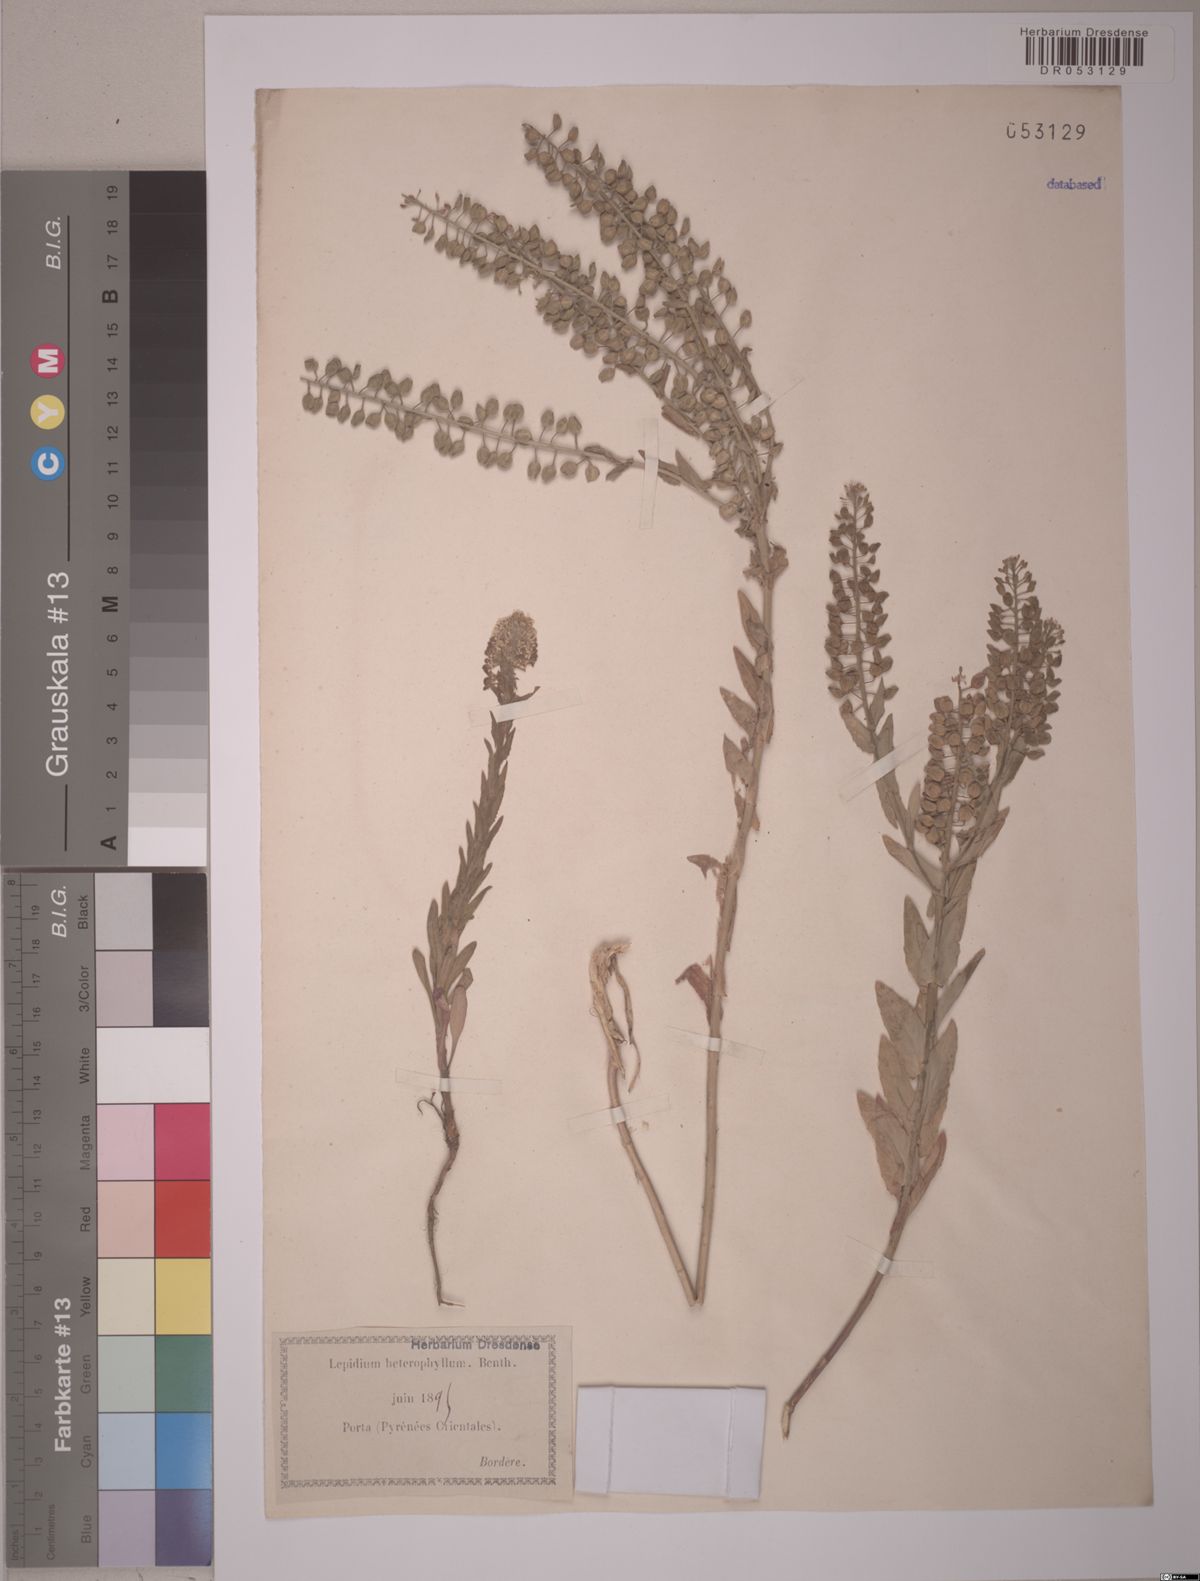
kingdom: Plantae
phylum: Tracheophyta
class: Magnoliopsida
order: Brassicales
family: Brassicaceae
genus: Lepidium
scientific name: Lepidium heterophyllum
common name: Smith's pepperwort
